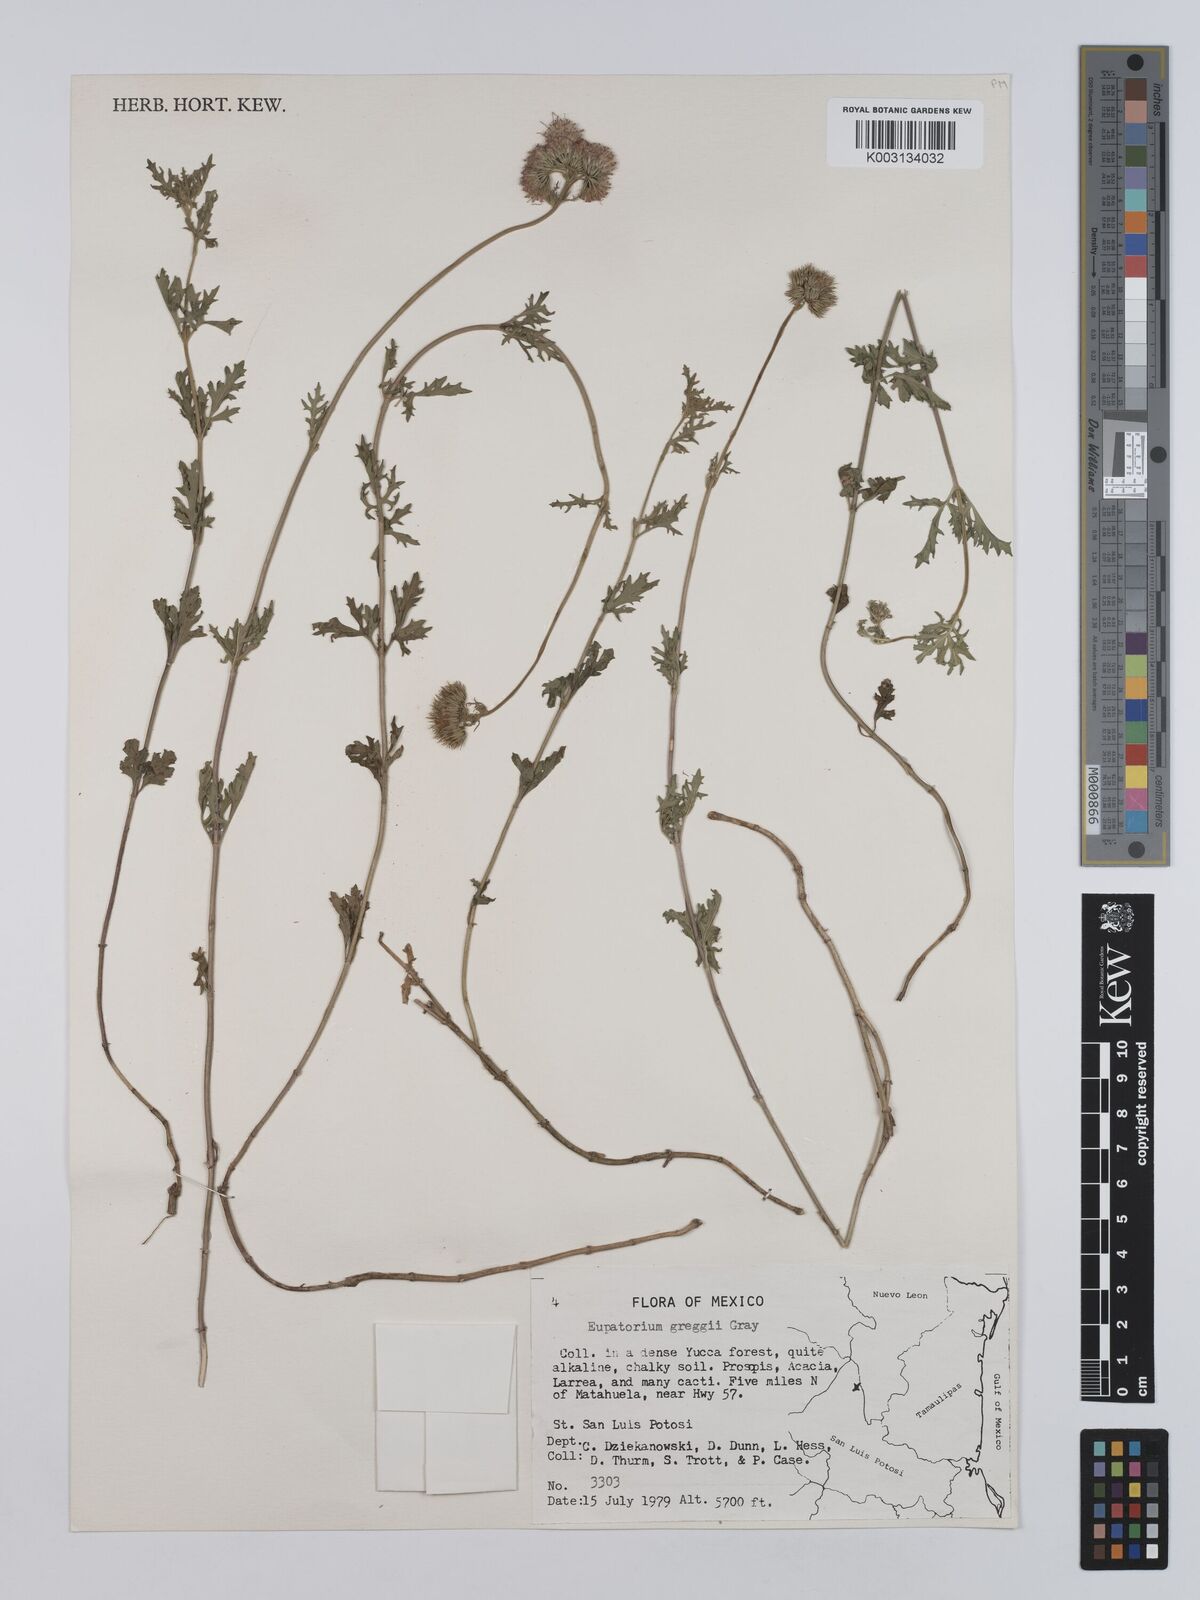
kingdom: Plantae
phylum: Tracheophyta
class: Magnoliopsida
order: Asterales
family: Asteraceae
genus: Conoclinium
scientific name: Conoclinium dissectum
